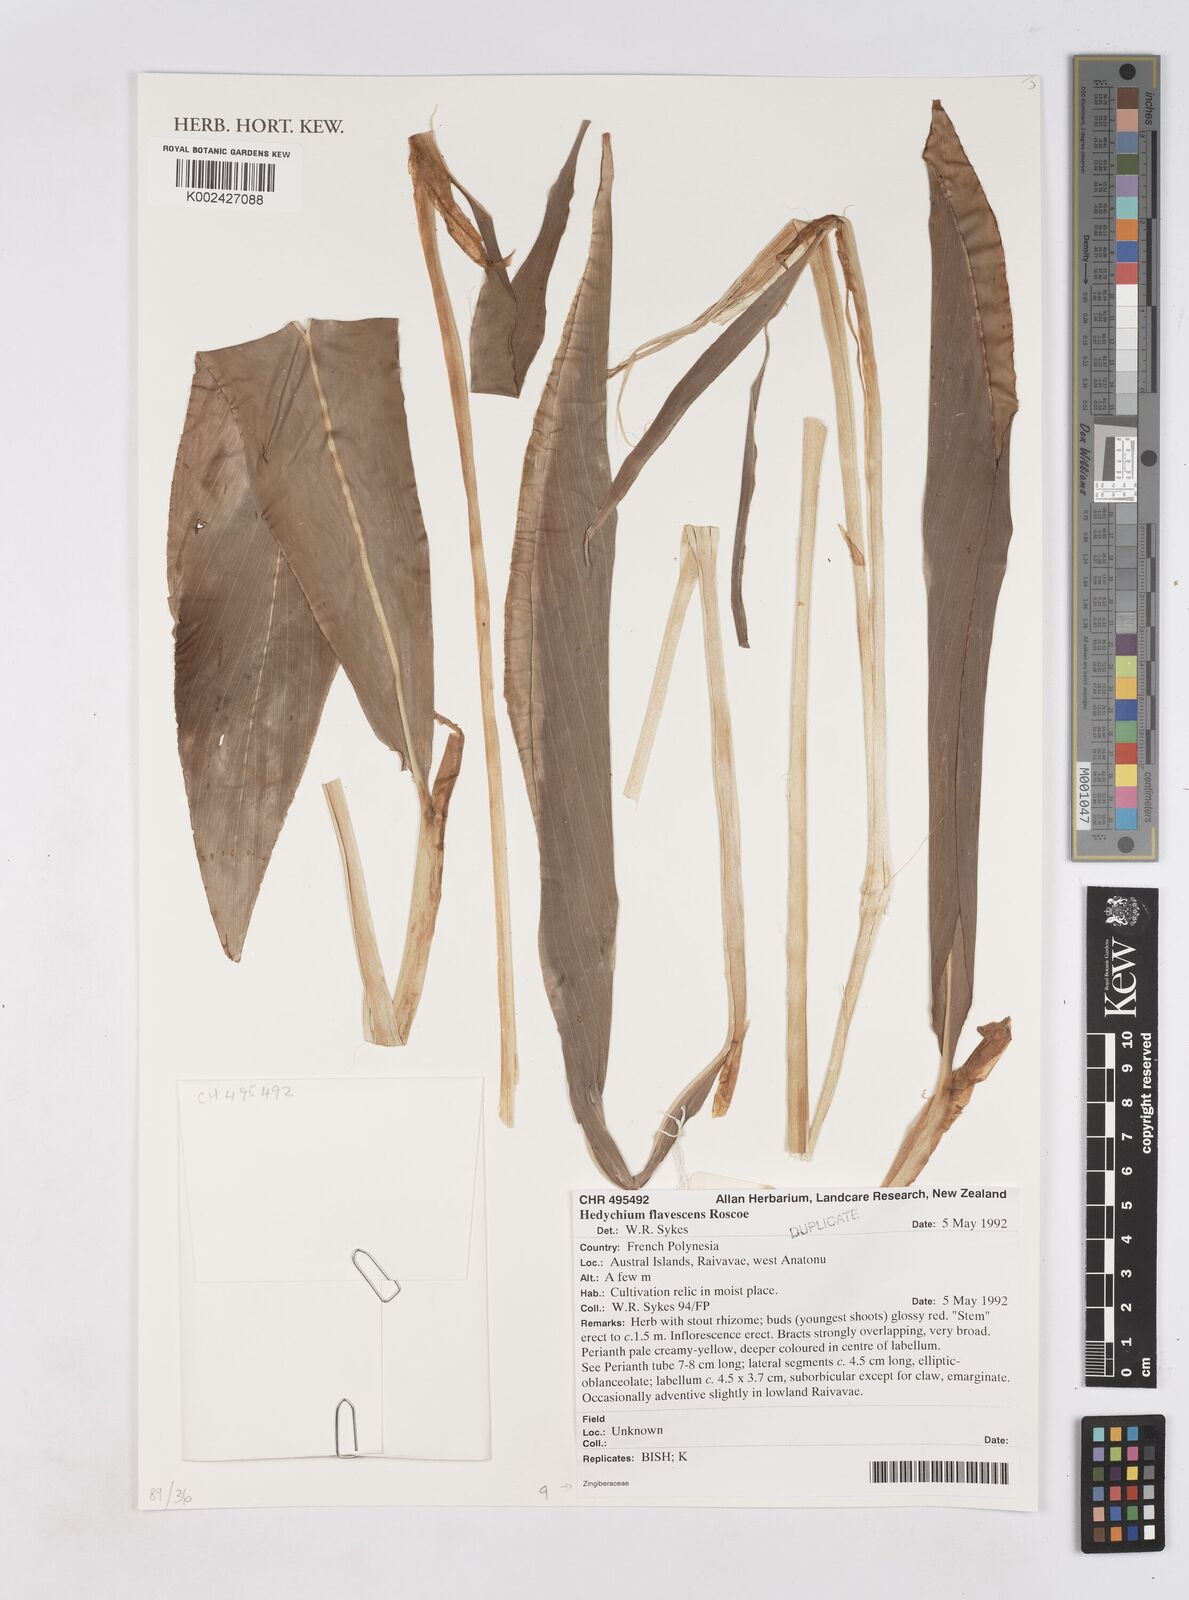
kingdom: Plantae
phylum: Tracheophyta
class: Liliopsida
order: Zingiberales
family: Zingiberaceae
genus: Hedychium
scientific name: Hedychium flavescens
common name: Yellow ginger
